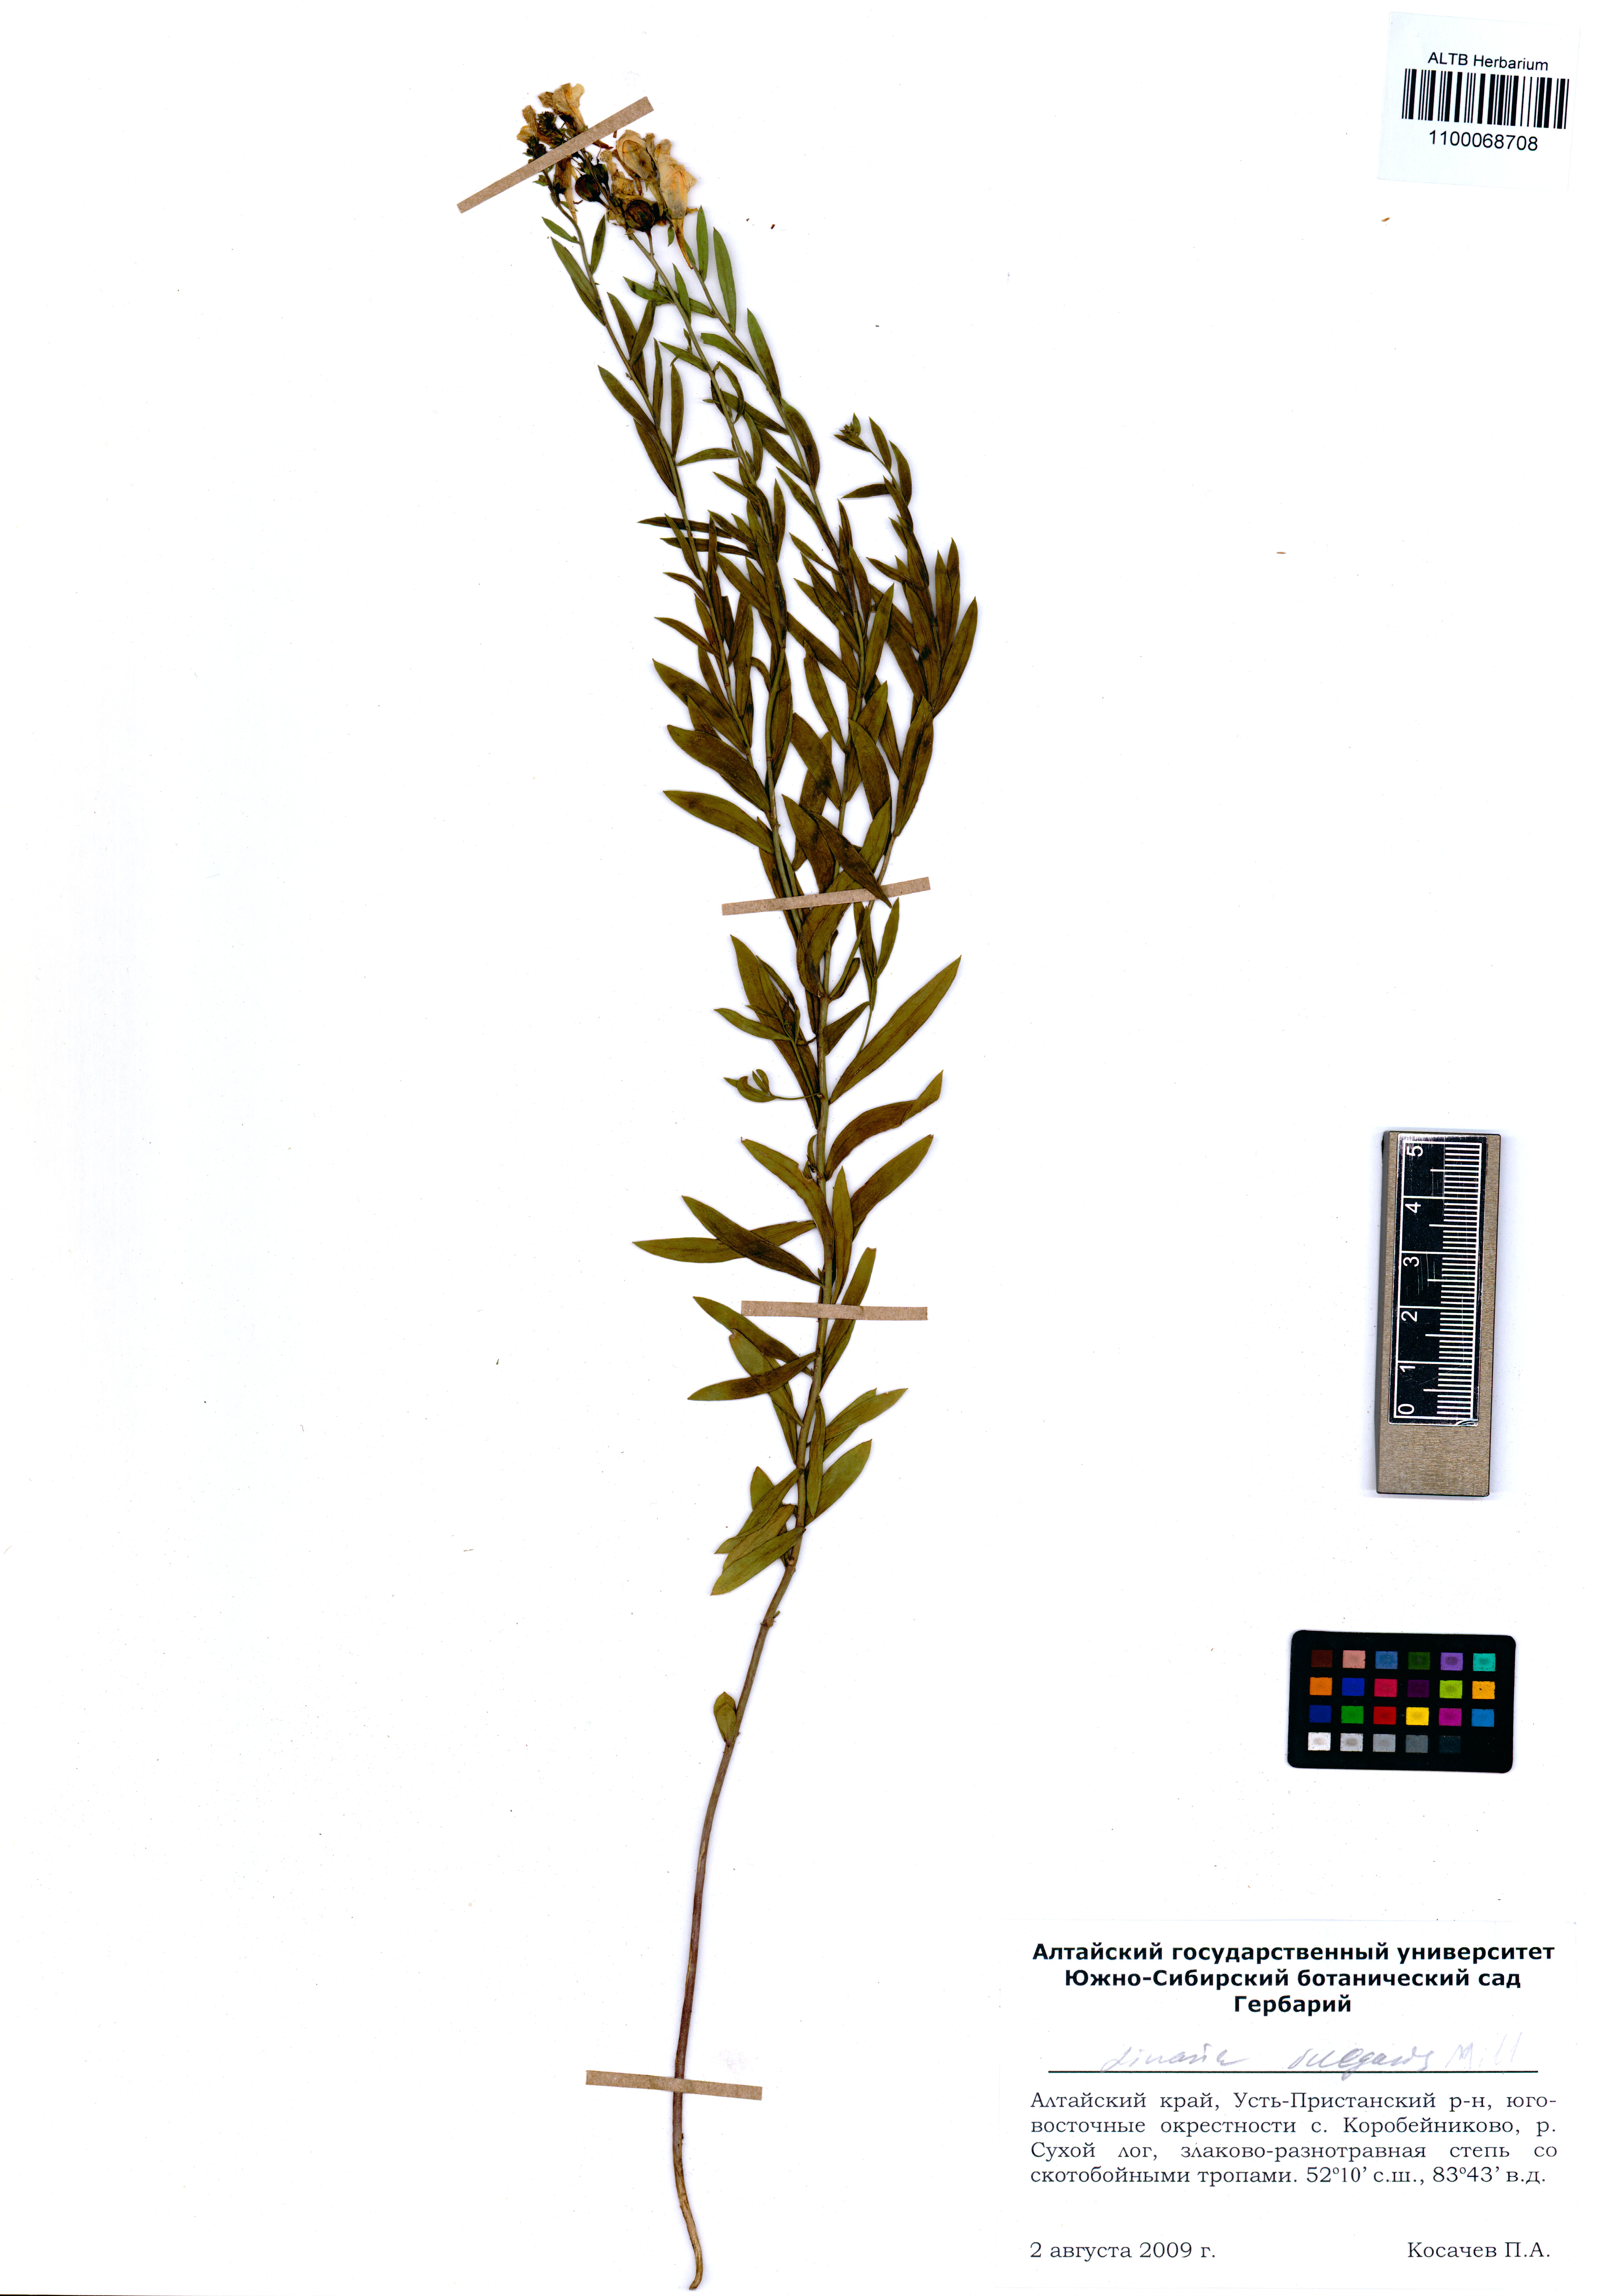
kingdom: Plantae
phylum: Tracheophyta
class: Magnoliopsida
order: Lamiales
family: Plantaginaceae
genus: Linaria
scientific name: Linaria vulgaris
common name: Butter and eggs
